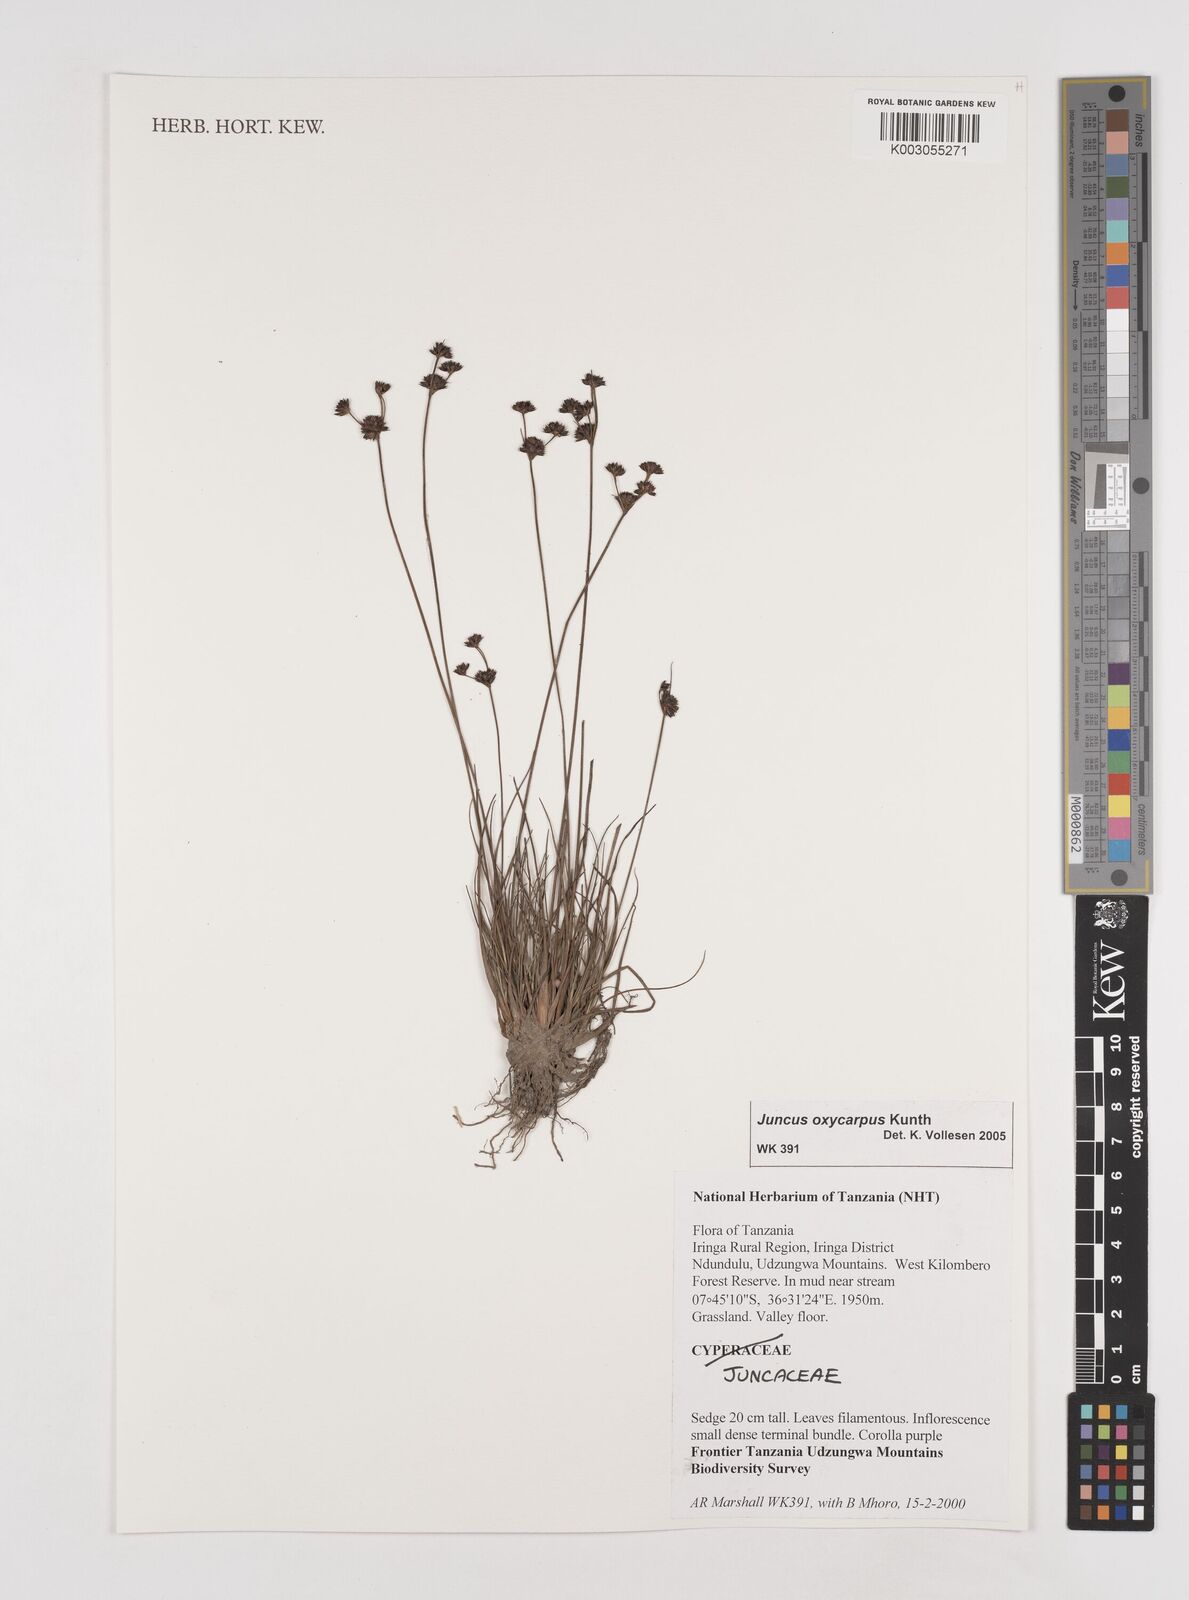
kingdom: Plantae
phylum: Tracheophyta
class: Liliopsida
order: Poales
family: Juncaceae
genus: Juncus
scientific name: Juncus oxycarpus
